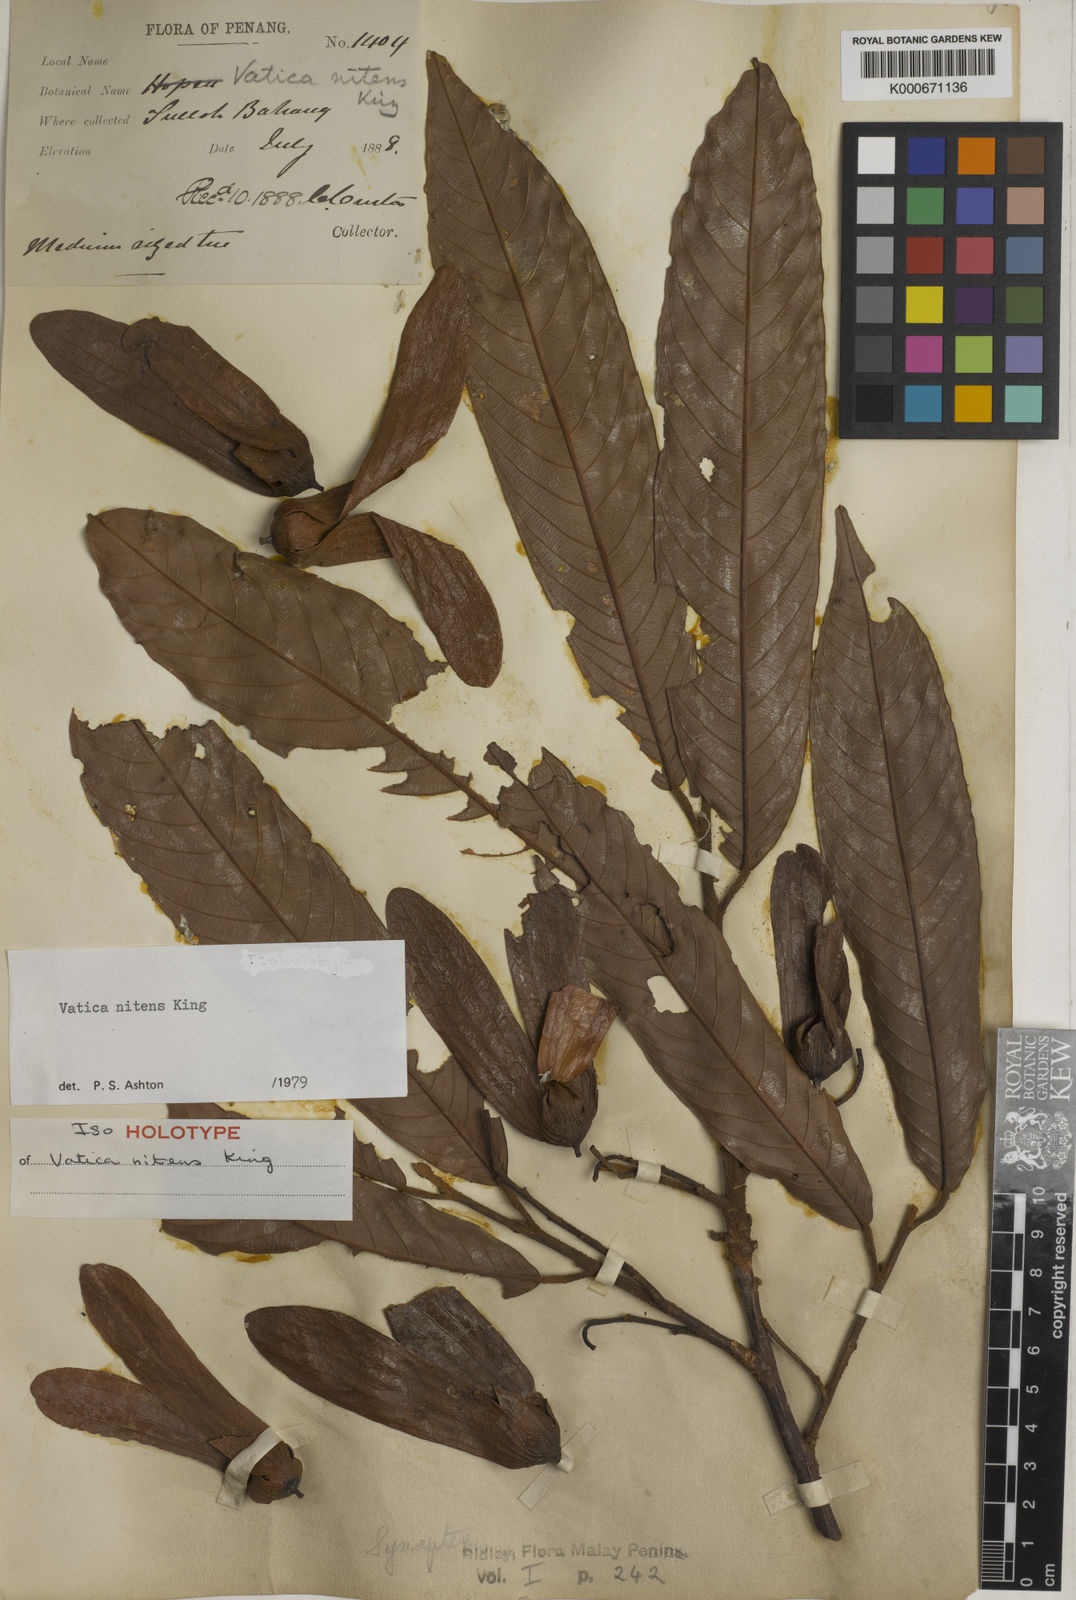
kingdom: Plantae
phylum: Tracheophyta
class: Magnoliopsida
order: Malvales
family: Dipterocarpaceae
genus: Vatica
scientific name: Vatica nitens
